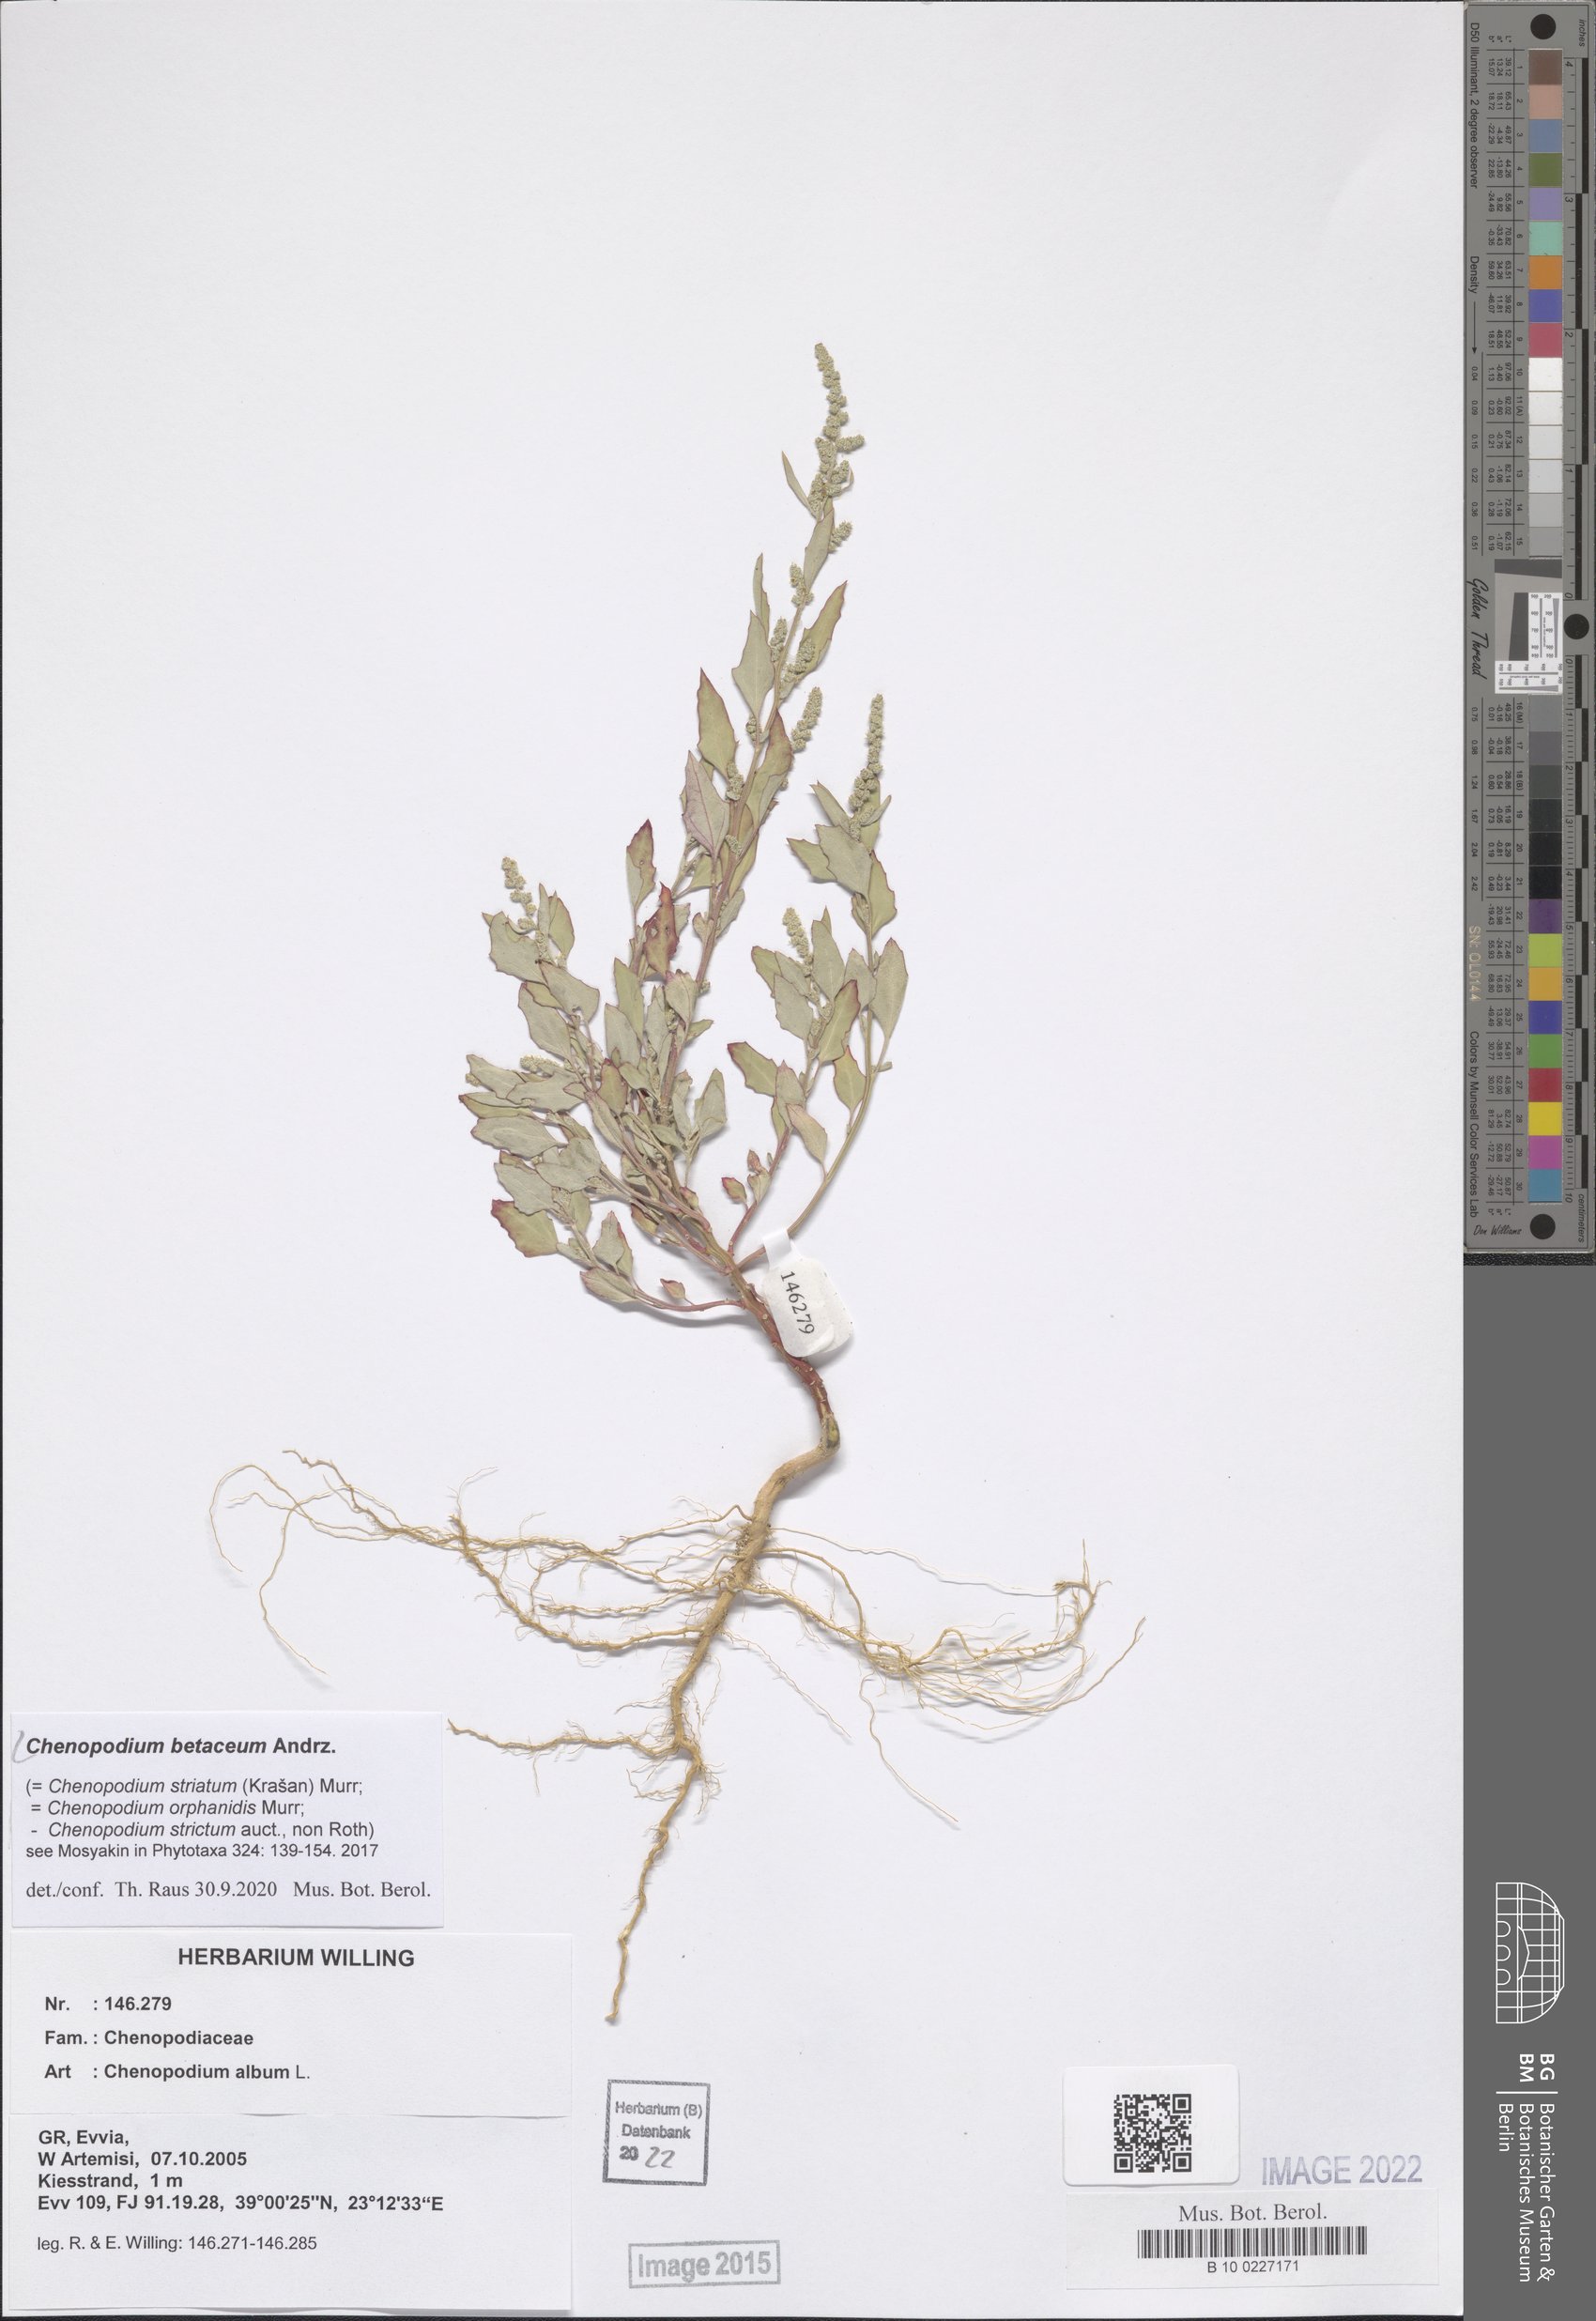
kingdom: Plantae
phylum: Tracheophyta
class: Magnoliopsida
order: Caryophyllales
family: Amaranthaceae
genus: Chenopodium
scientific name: Chenopodium betaceum
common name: Striped goosefoot
